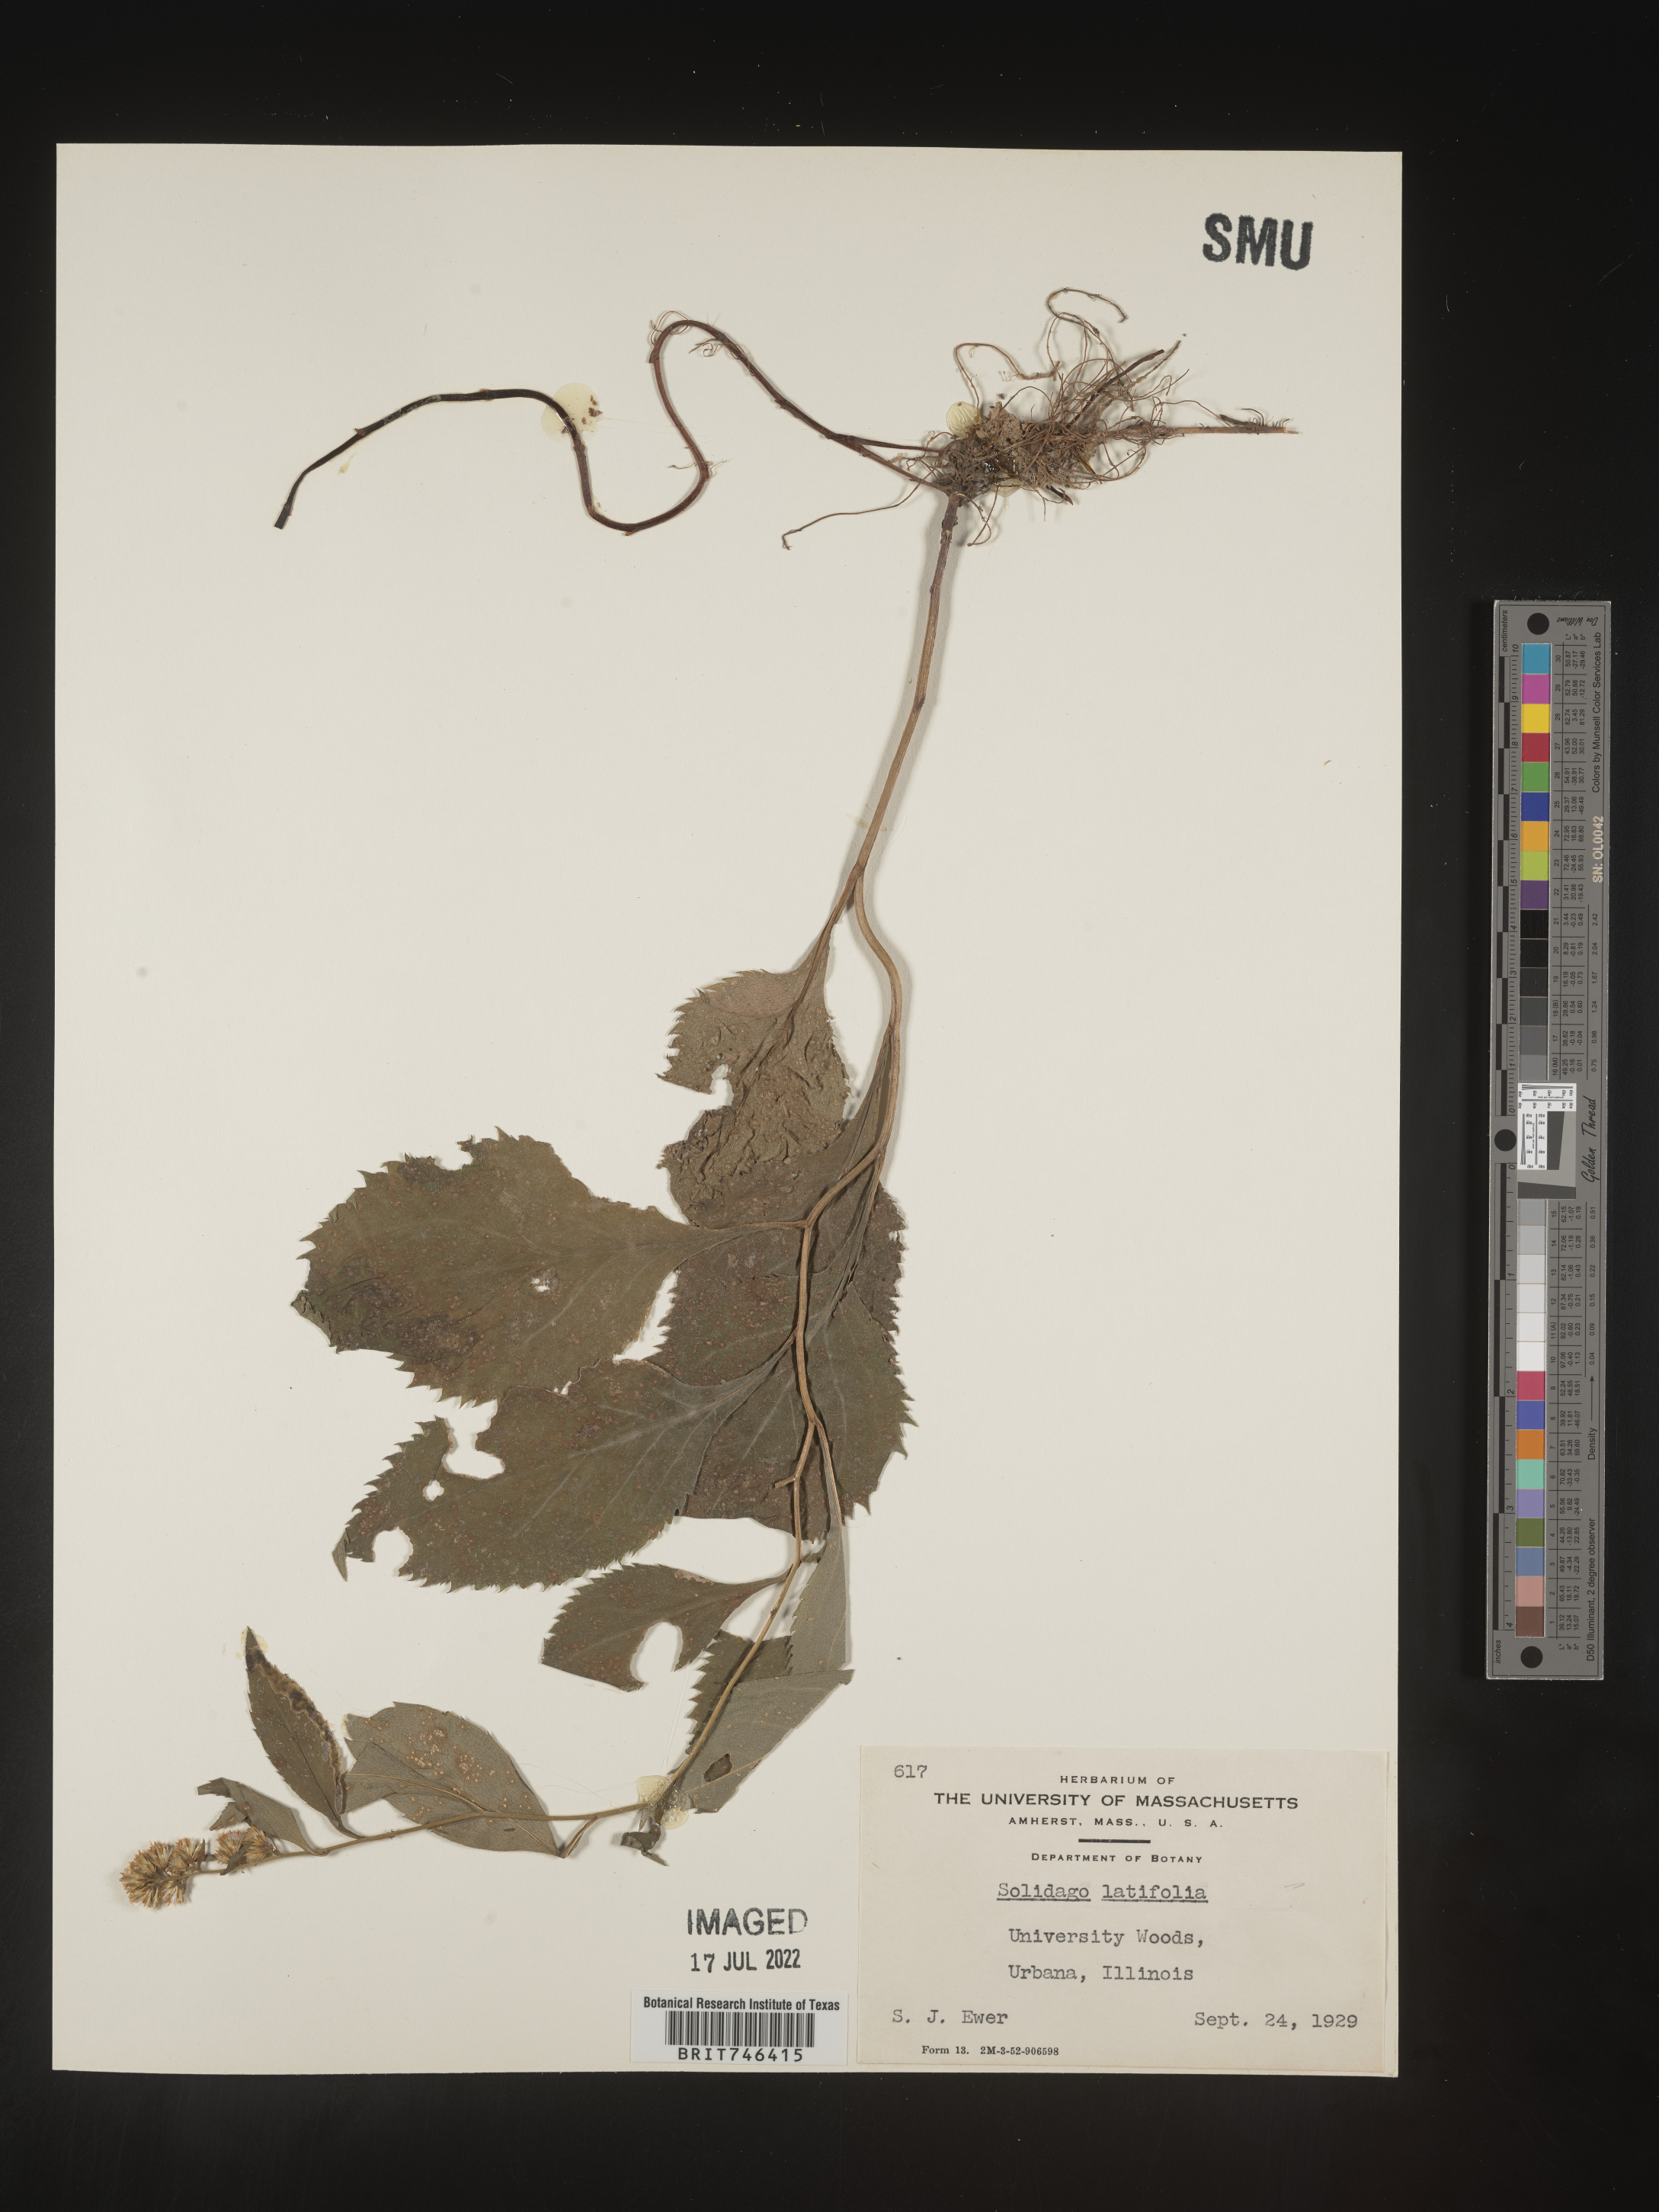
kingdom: Plantae
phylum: Tracheophyta
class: Magnoliopsida
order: Asterales
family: Asteraceae
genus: Solidago
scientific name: Solidago flexicaulis
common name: Zig-zag goldenrod
